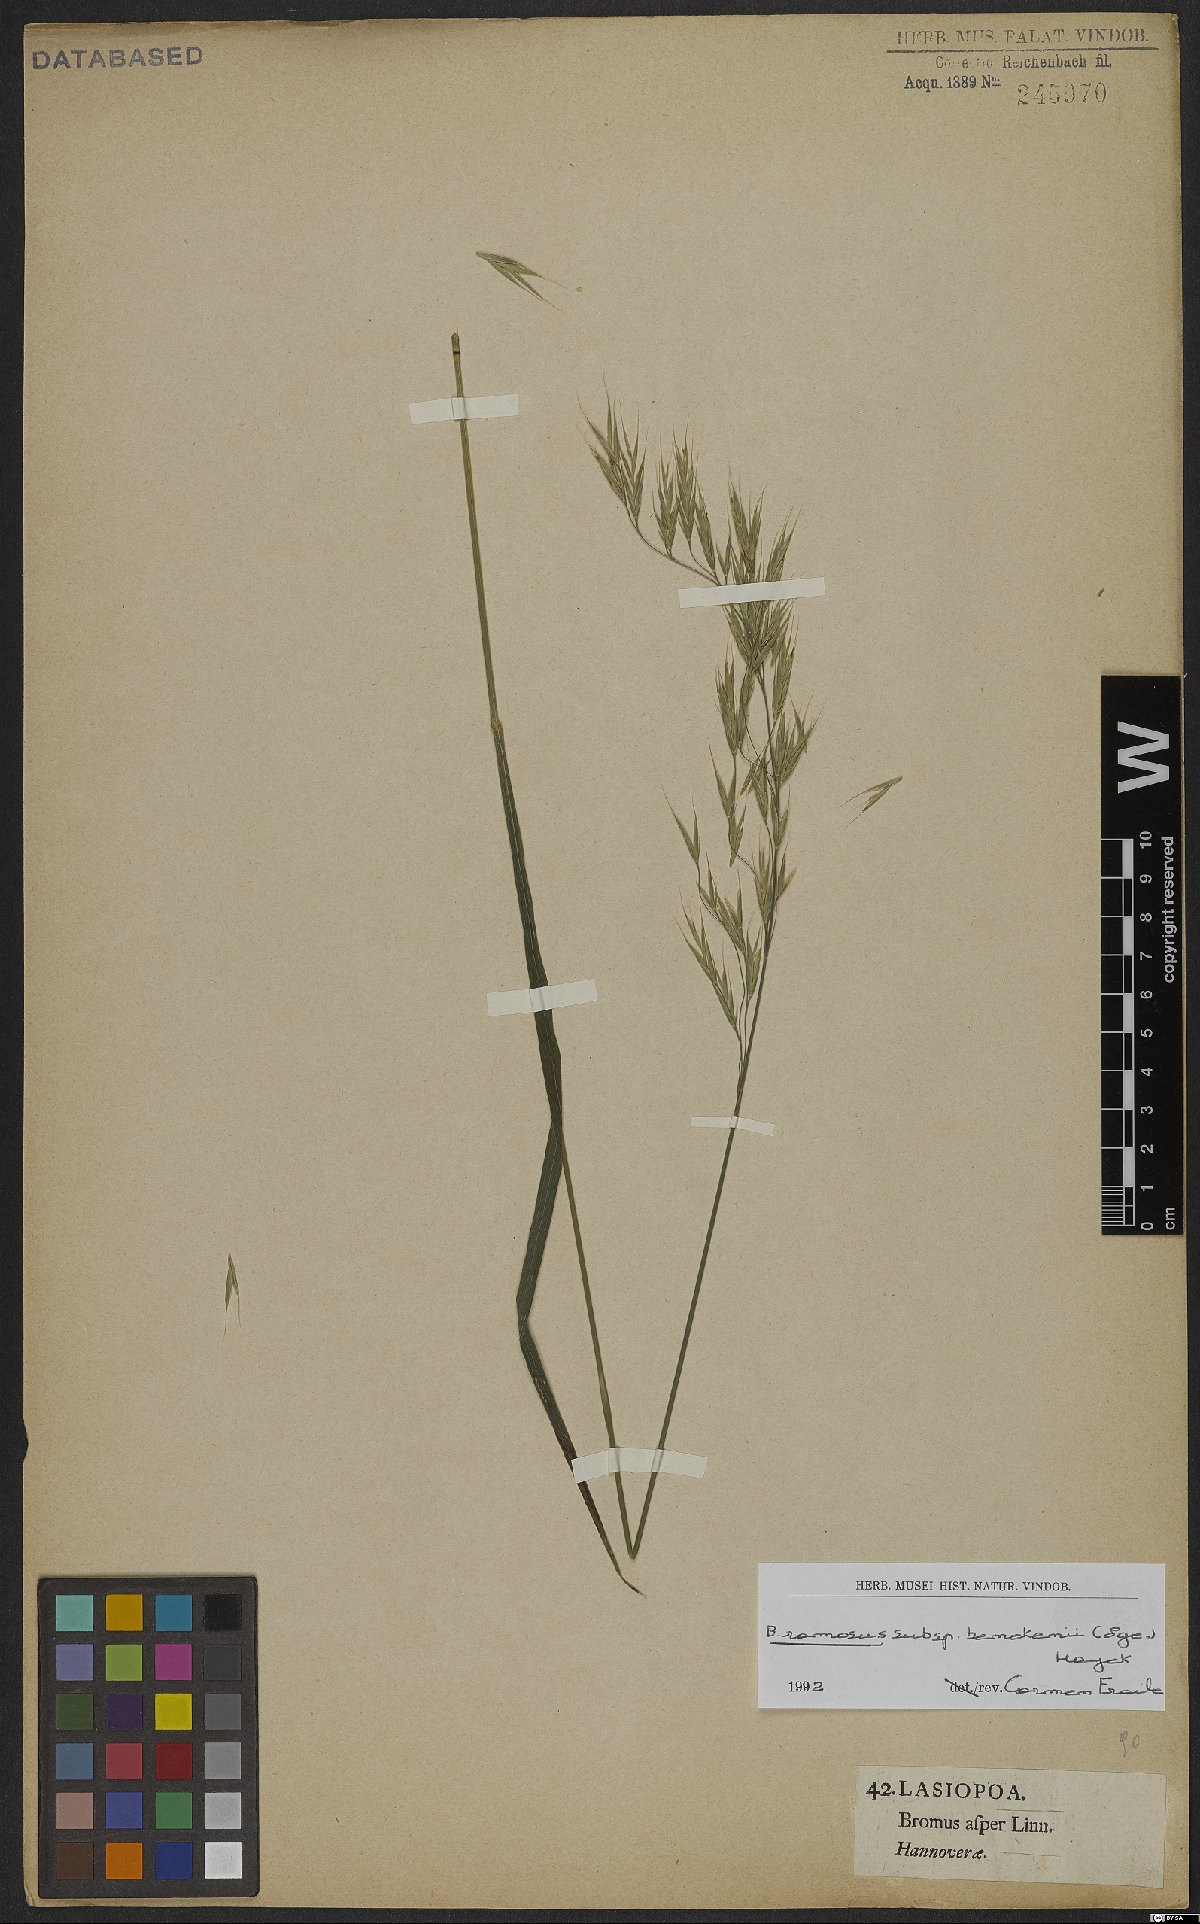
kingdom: Plantae
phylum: Tracheophyta
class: Liliopsida
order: Poales
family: Poaceae
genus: Bromus
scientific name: Bromus benekenii
